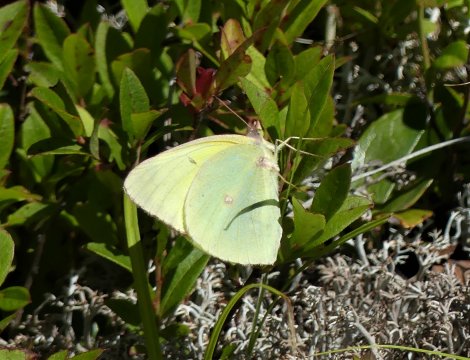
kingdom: Animalia
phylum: Arthropoda
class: Insecta
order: Lepidoptera
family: Pieridae
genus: Colias
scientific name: Colias interior
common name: Pink-edged Sulphur
